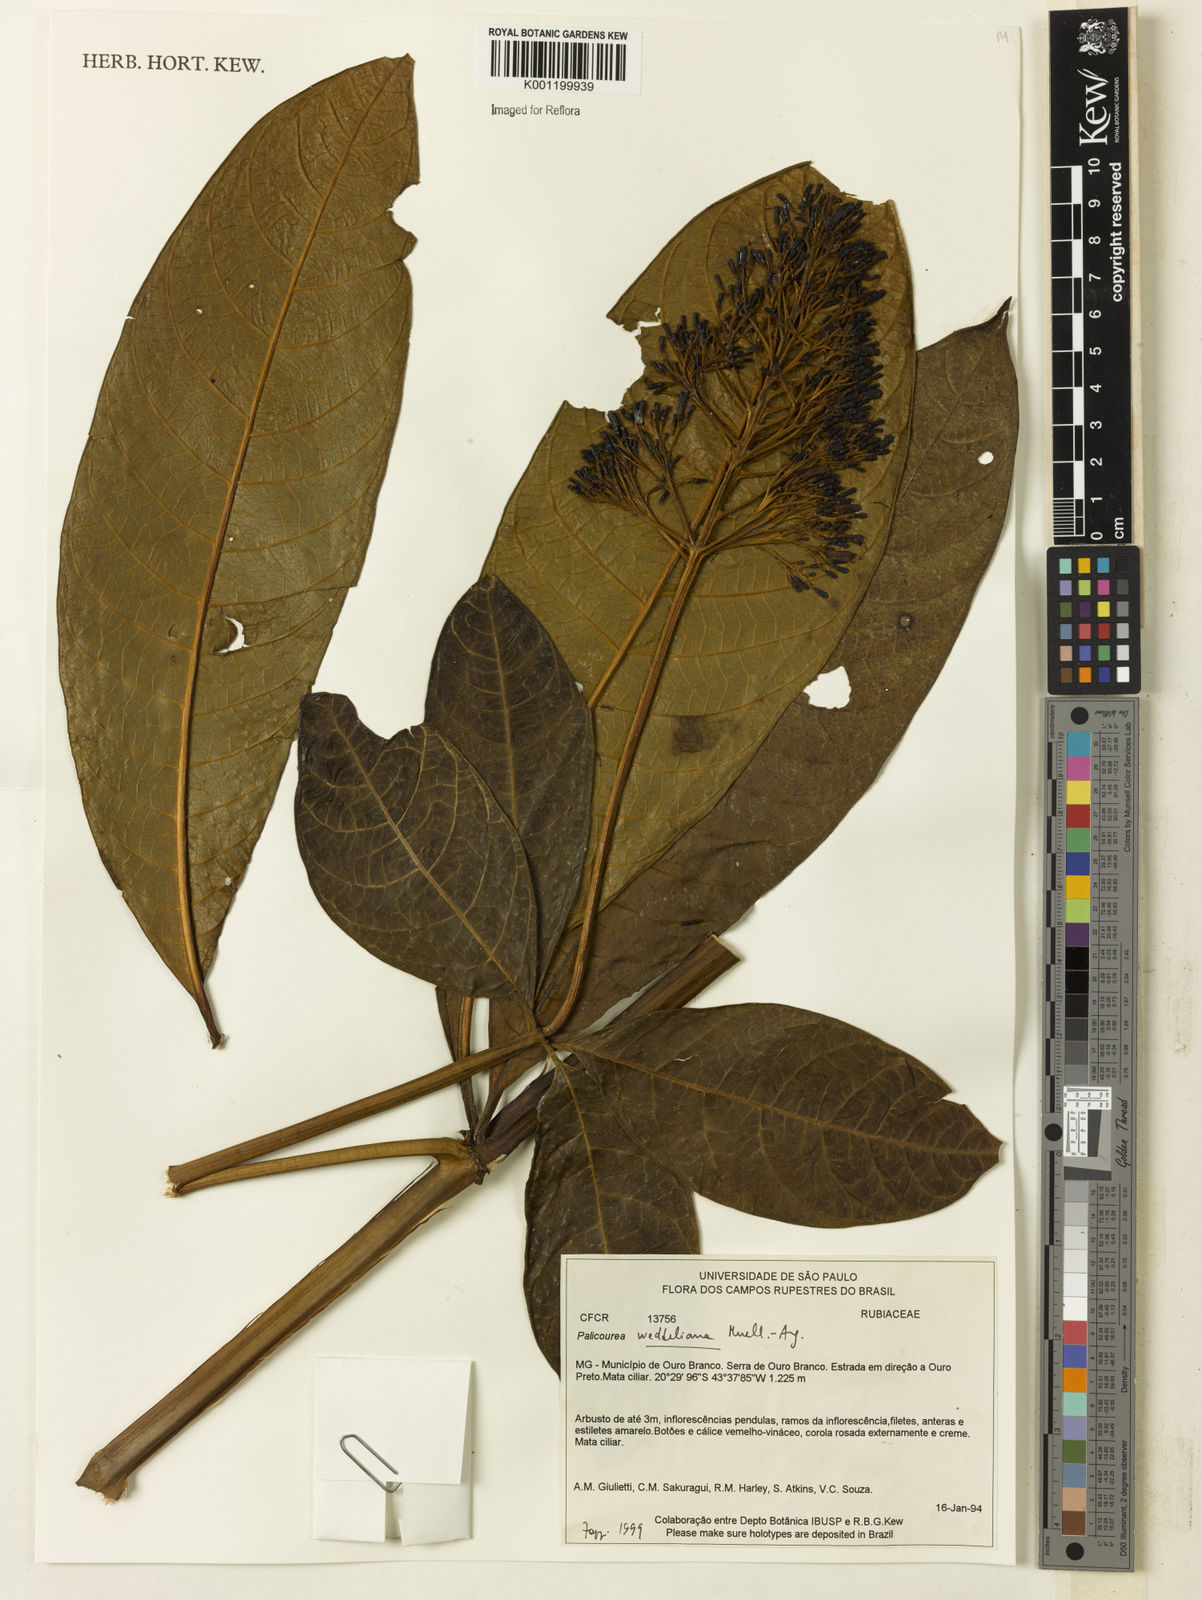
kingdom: Plantae
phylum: Tracheophyta
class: Magnoliopsida
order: Gentianales
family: Rubiaceae
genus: Palicourea
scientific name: Palicourea
